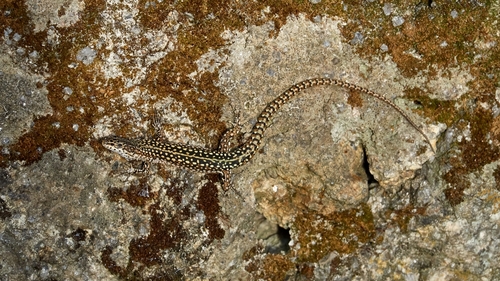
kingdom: Animalia
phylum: Chordata
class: Squamata
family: Lacertidae
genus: Podarcis
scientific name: Podarcis guadarramae
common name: Guadarrama wall lizard
